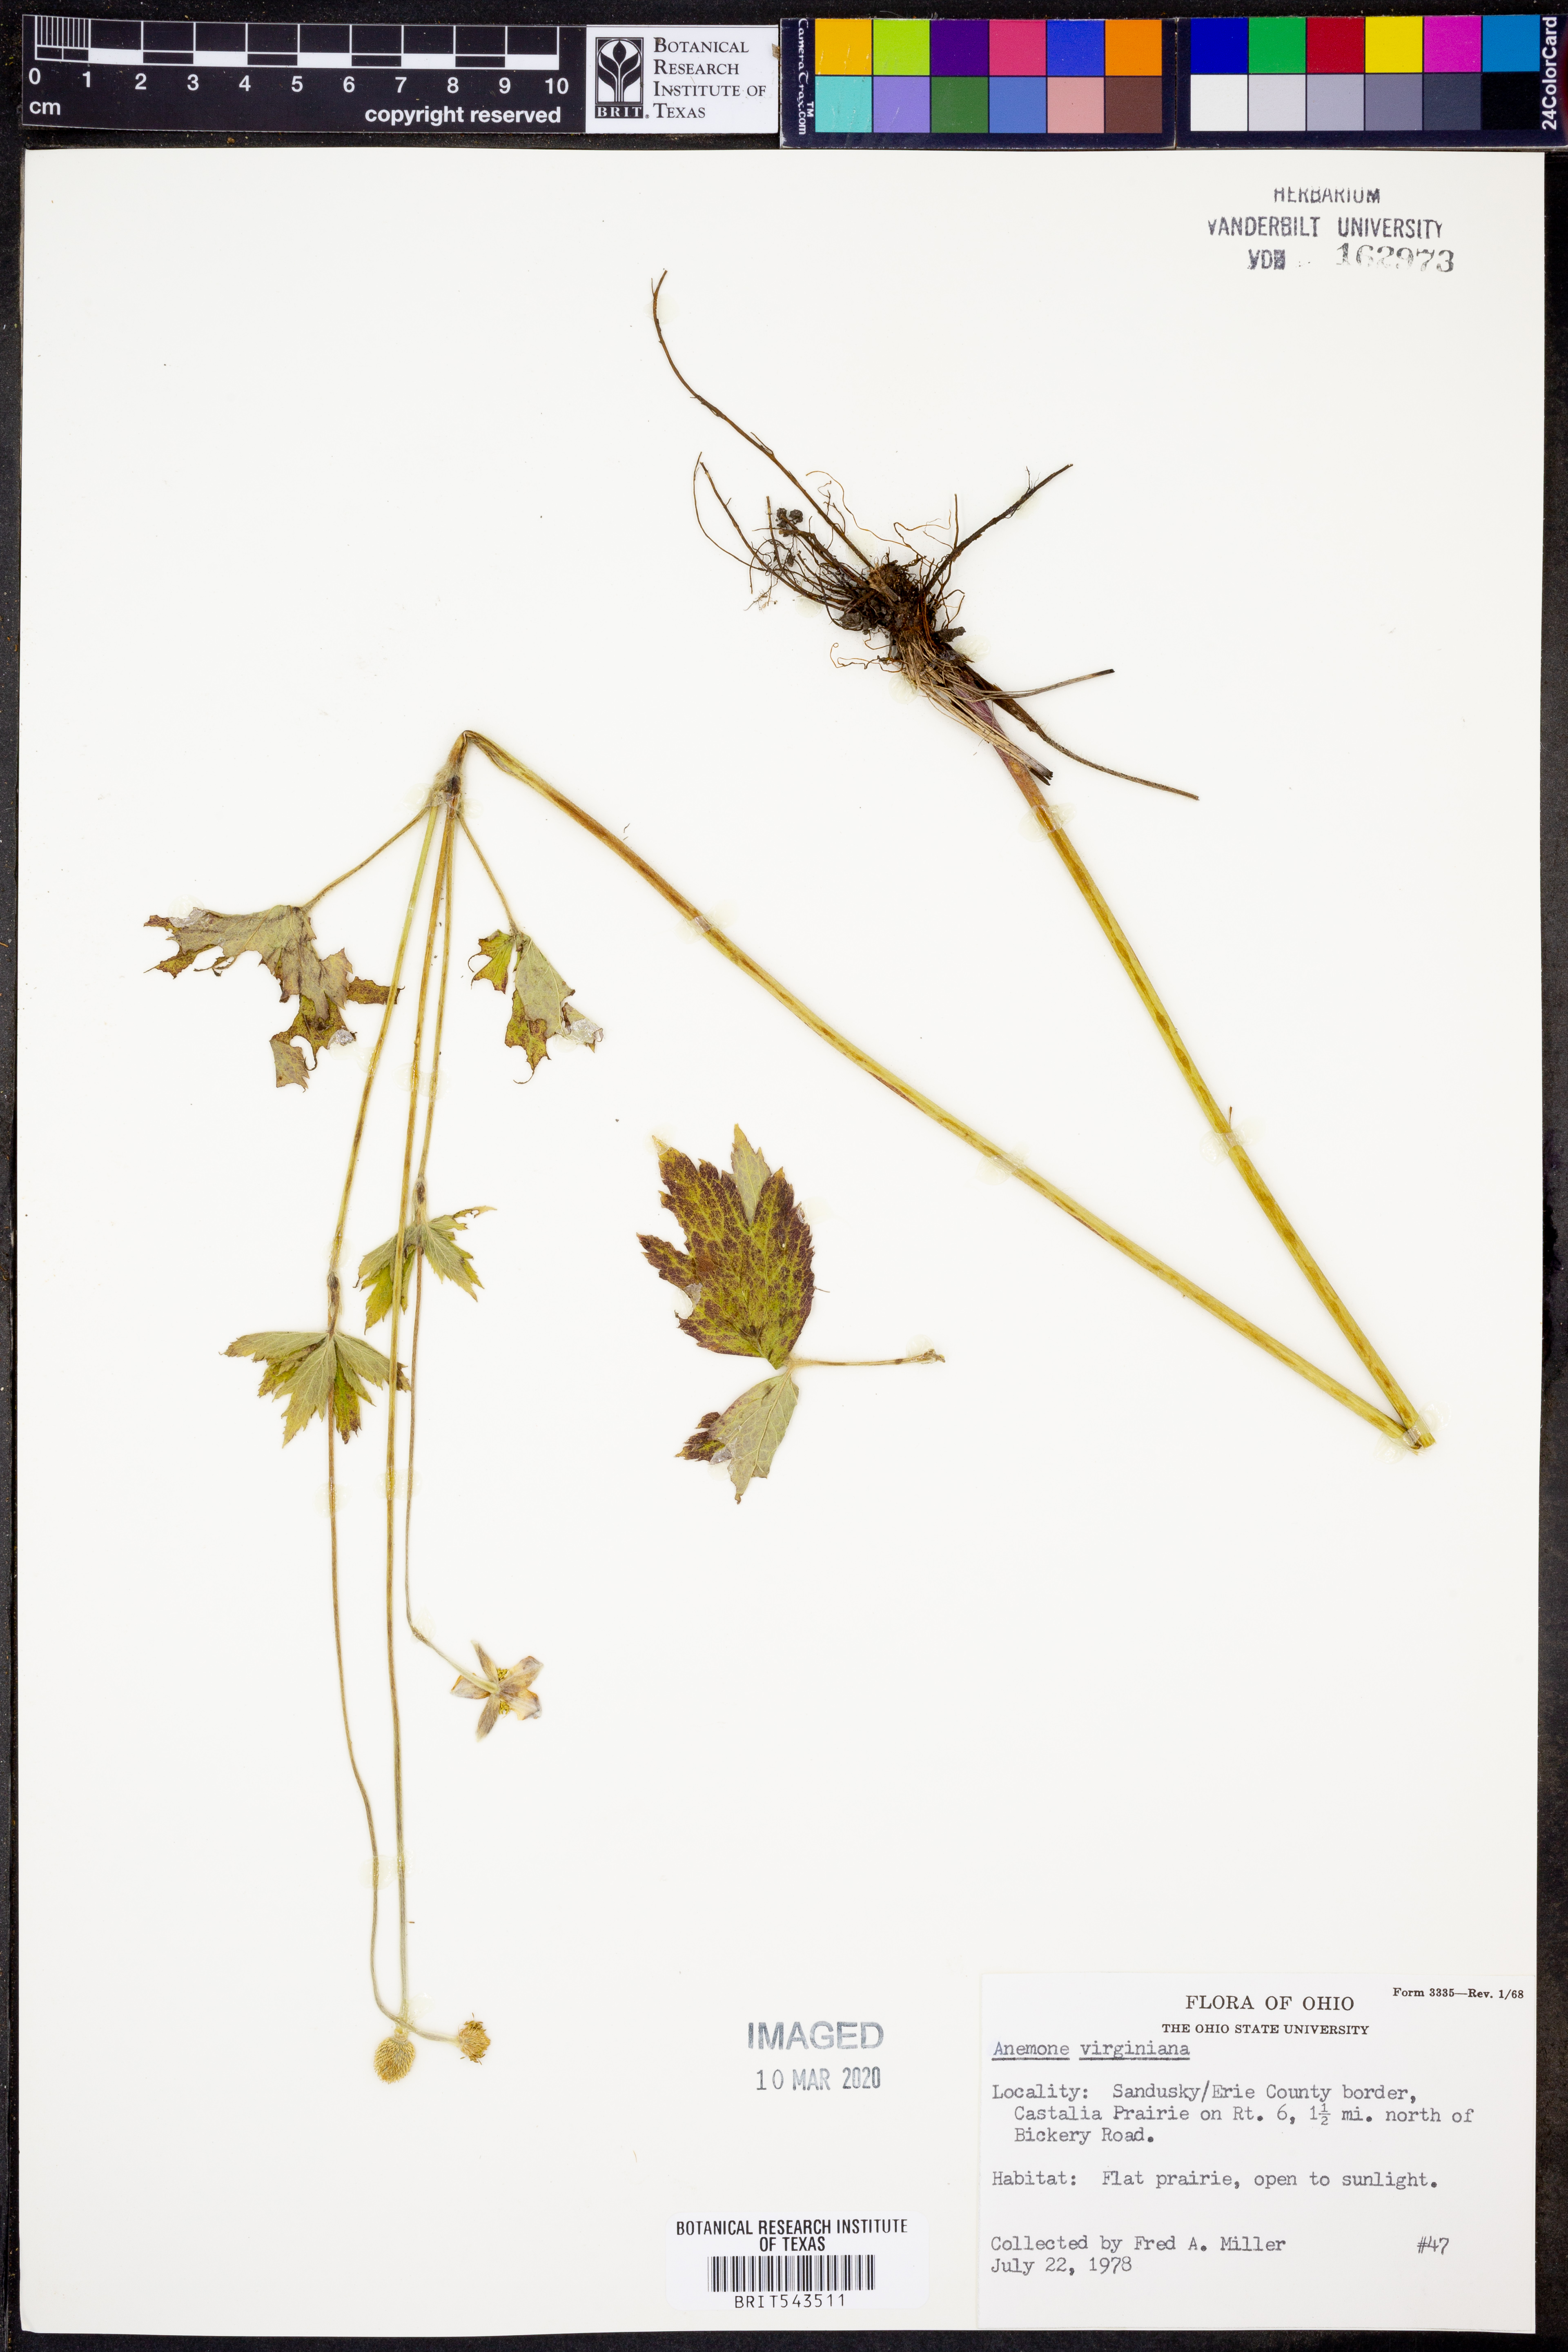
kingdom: Plantae
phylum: Tracheophyta
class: Magnoliopsida
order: Ranunculales
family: Ranunculaceae
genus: Anemone
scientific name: Anemone virginiana
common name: Tall anemone
